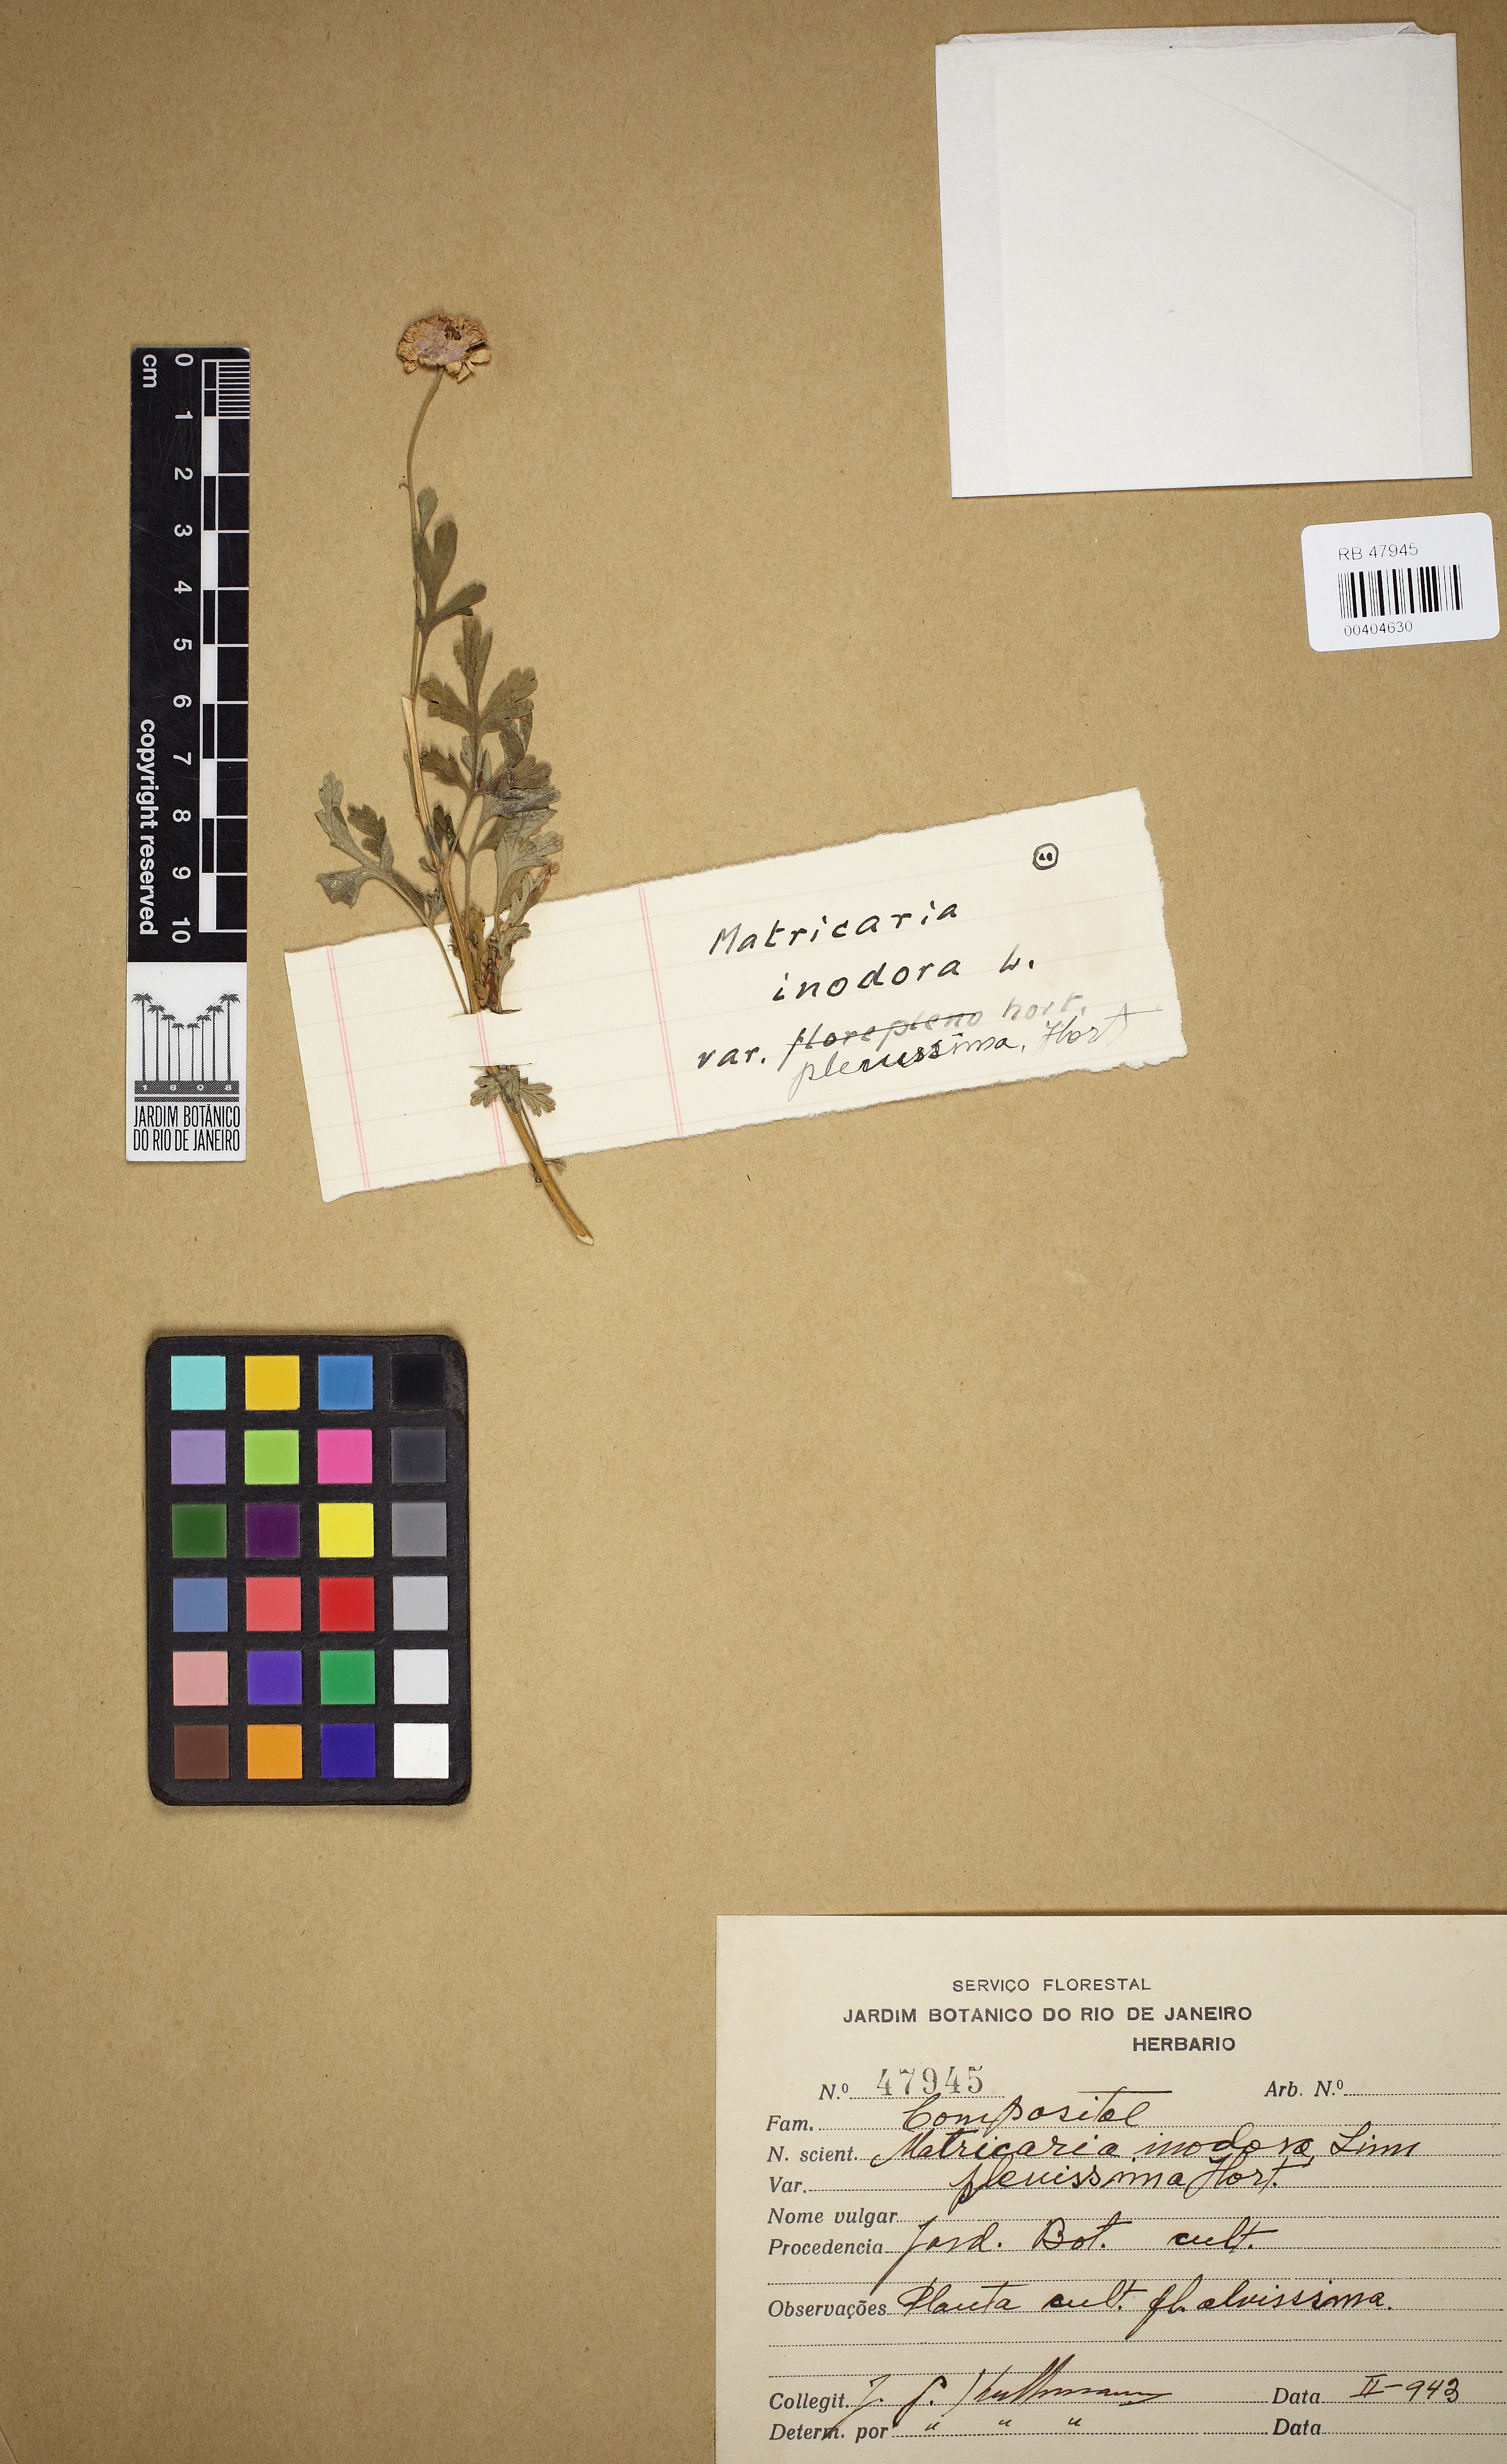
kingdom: Plantae
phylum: Tracheophyta
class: Magnoliopsida
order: Asterales
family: Asteraceae
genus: Tripleurospermum
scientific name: Tripleurospermum inodorum
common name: Scentless mayweed
